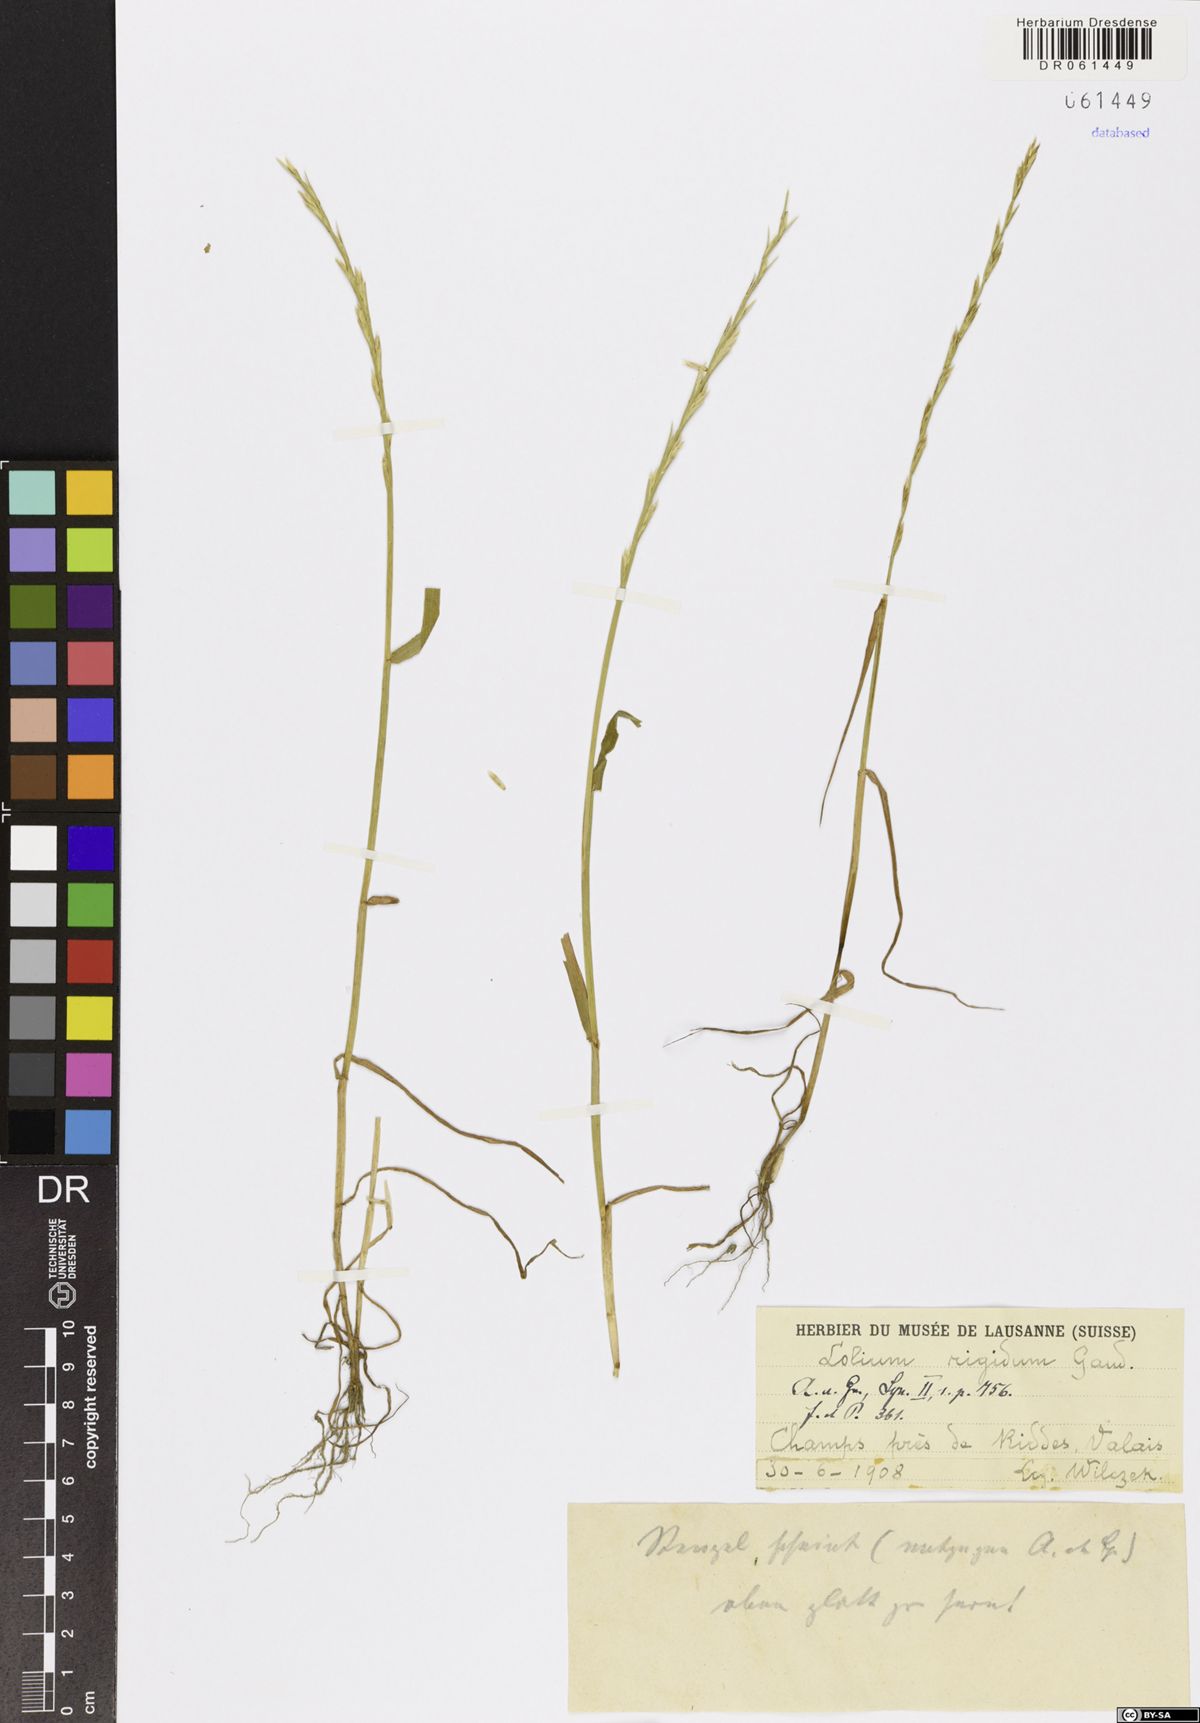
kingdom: Plantae
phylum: Tracheophyta
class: Liliopsida
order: Poales
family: Poaceae
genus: Lolium
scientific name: Lolium rigidum
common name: Wimmera ryegrass
